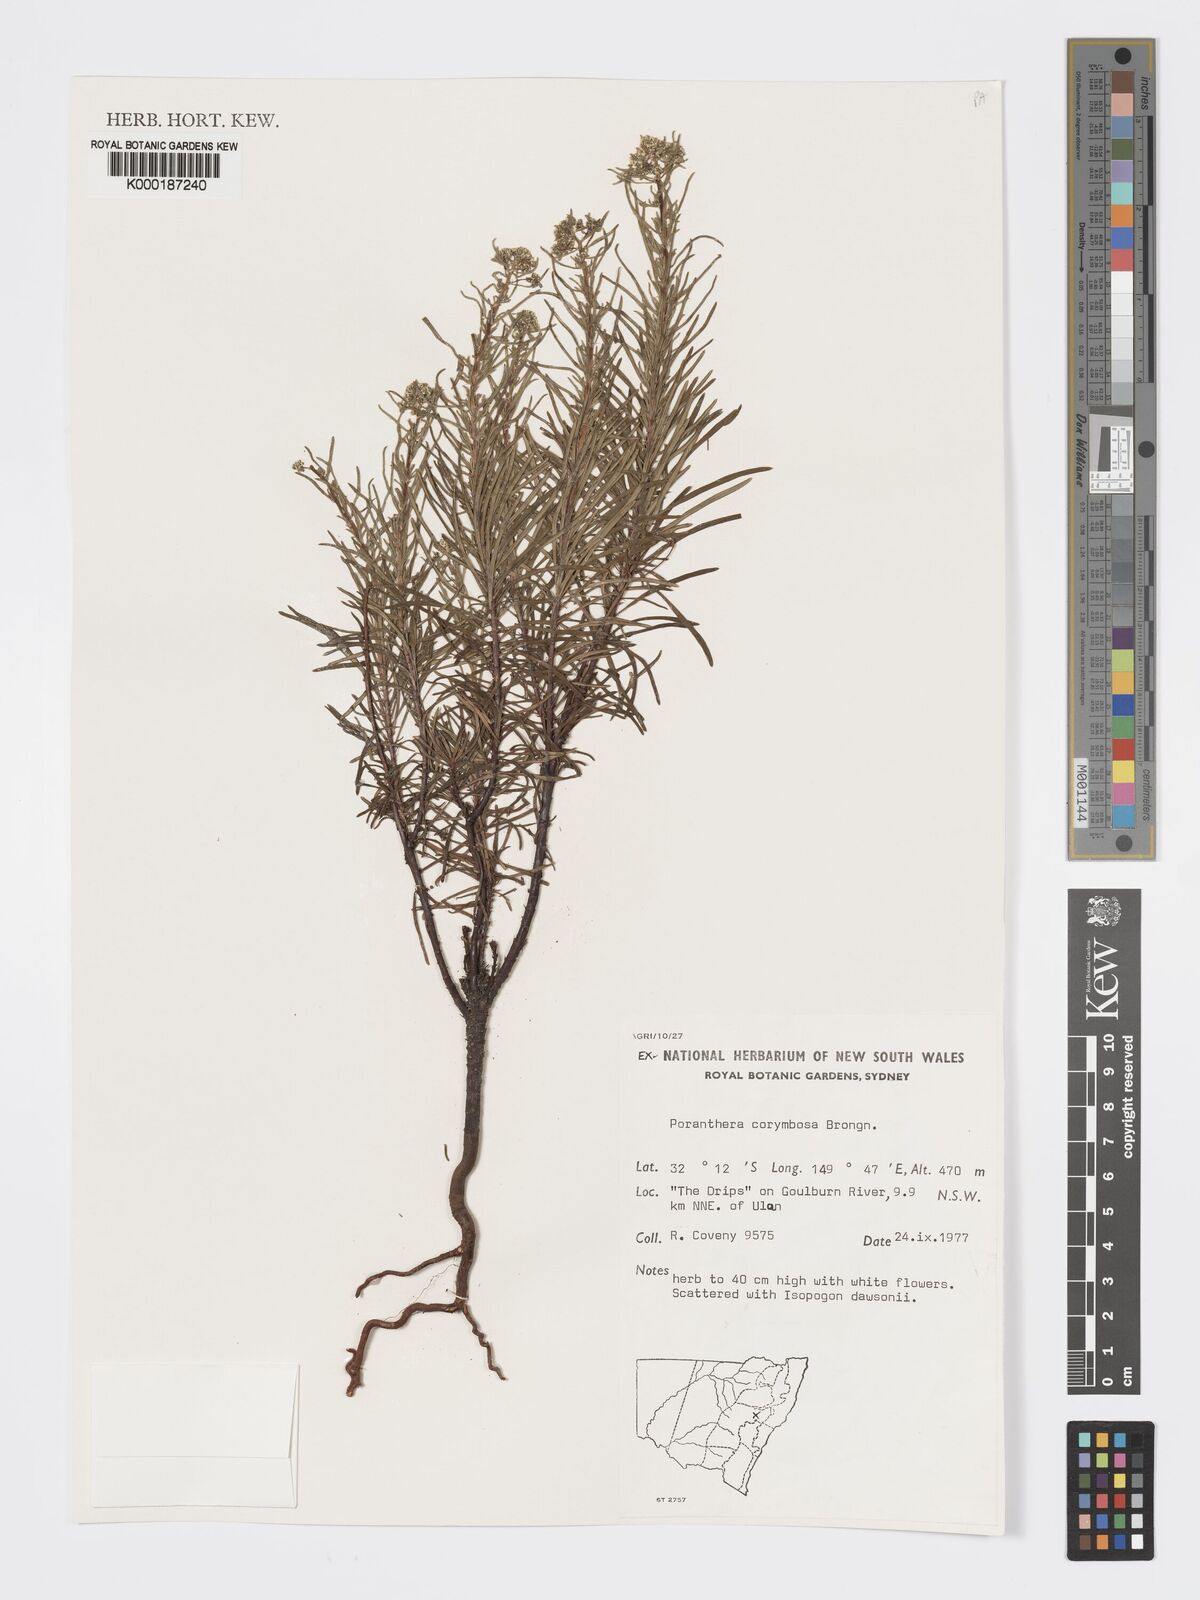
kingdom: Plantae
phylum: Tracheophyta
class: Magnoliopsida
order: Malpighiales
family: Phyllanthaceae
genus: Poranthera
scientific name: Poranthera corymbosa
